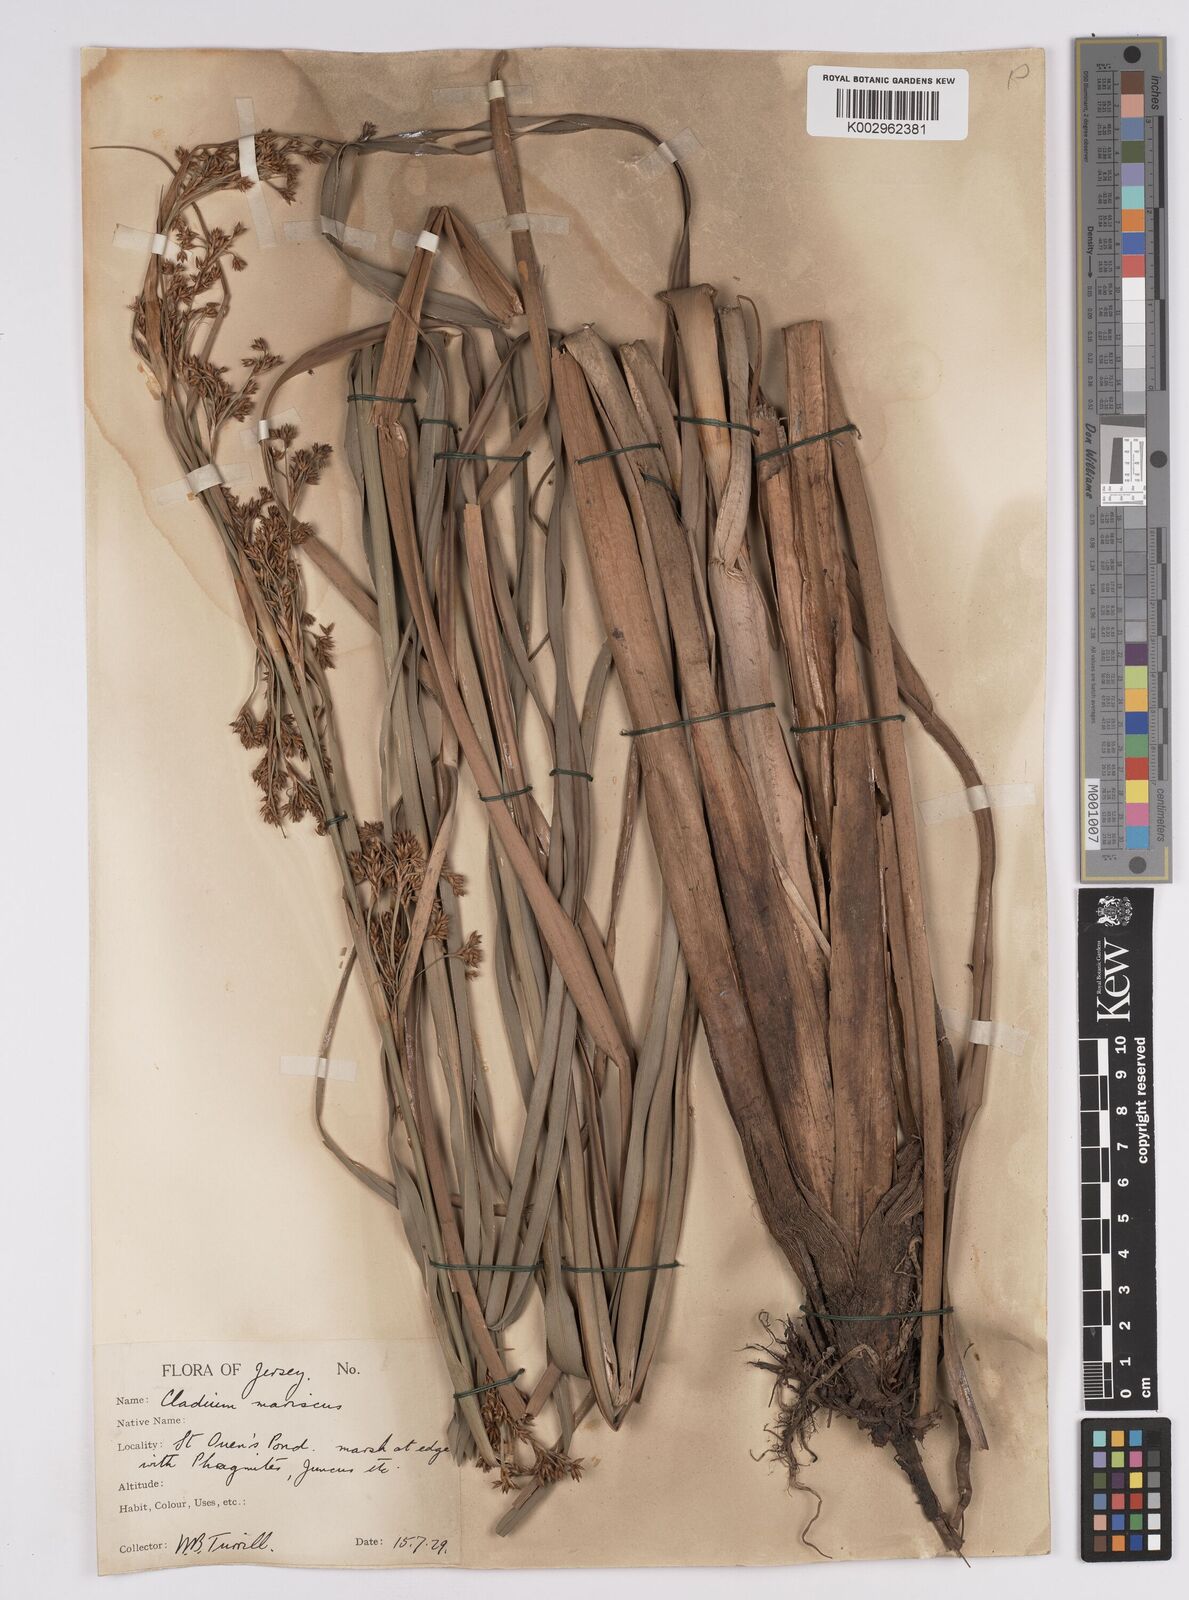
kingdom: Plantae
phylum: Tracheophyta
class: Liliopsida
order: Poales
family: Cyperaceae
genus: Cladium
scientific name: Cladium mariscus
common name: Great fen-sedge
